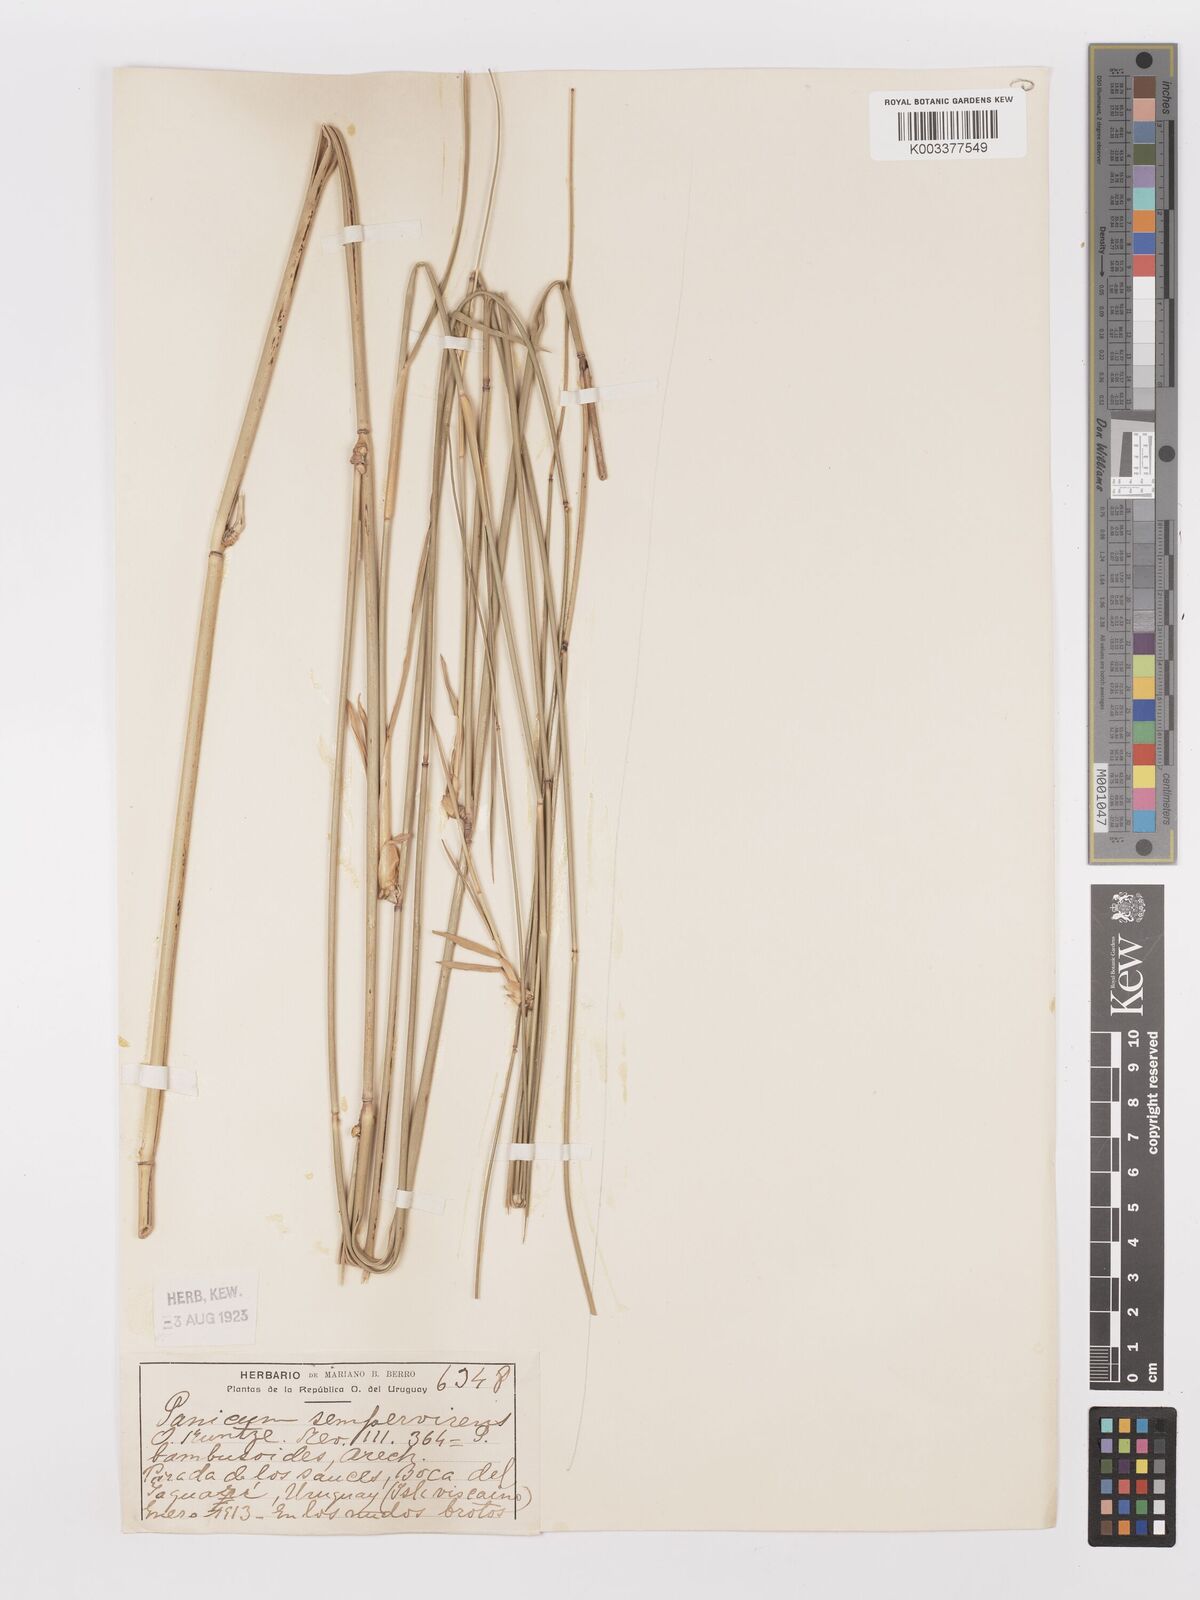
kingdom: Plantae
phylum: Tracheophyta
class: Liliopsida
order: Poales
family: Poaceae
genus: Panicum
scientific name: Panicum tricholaenoides
